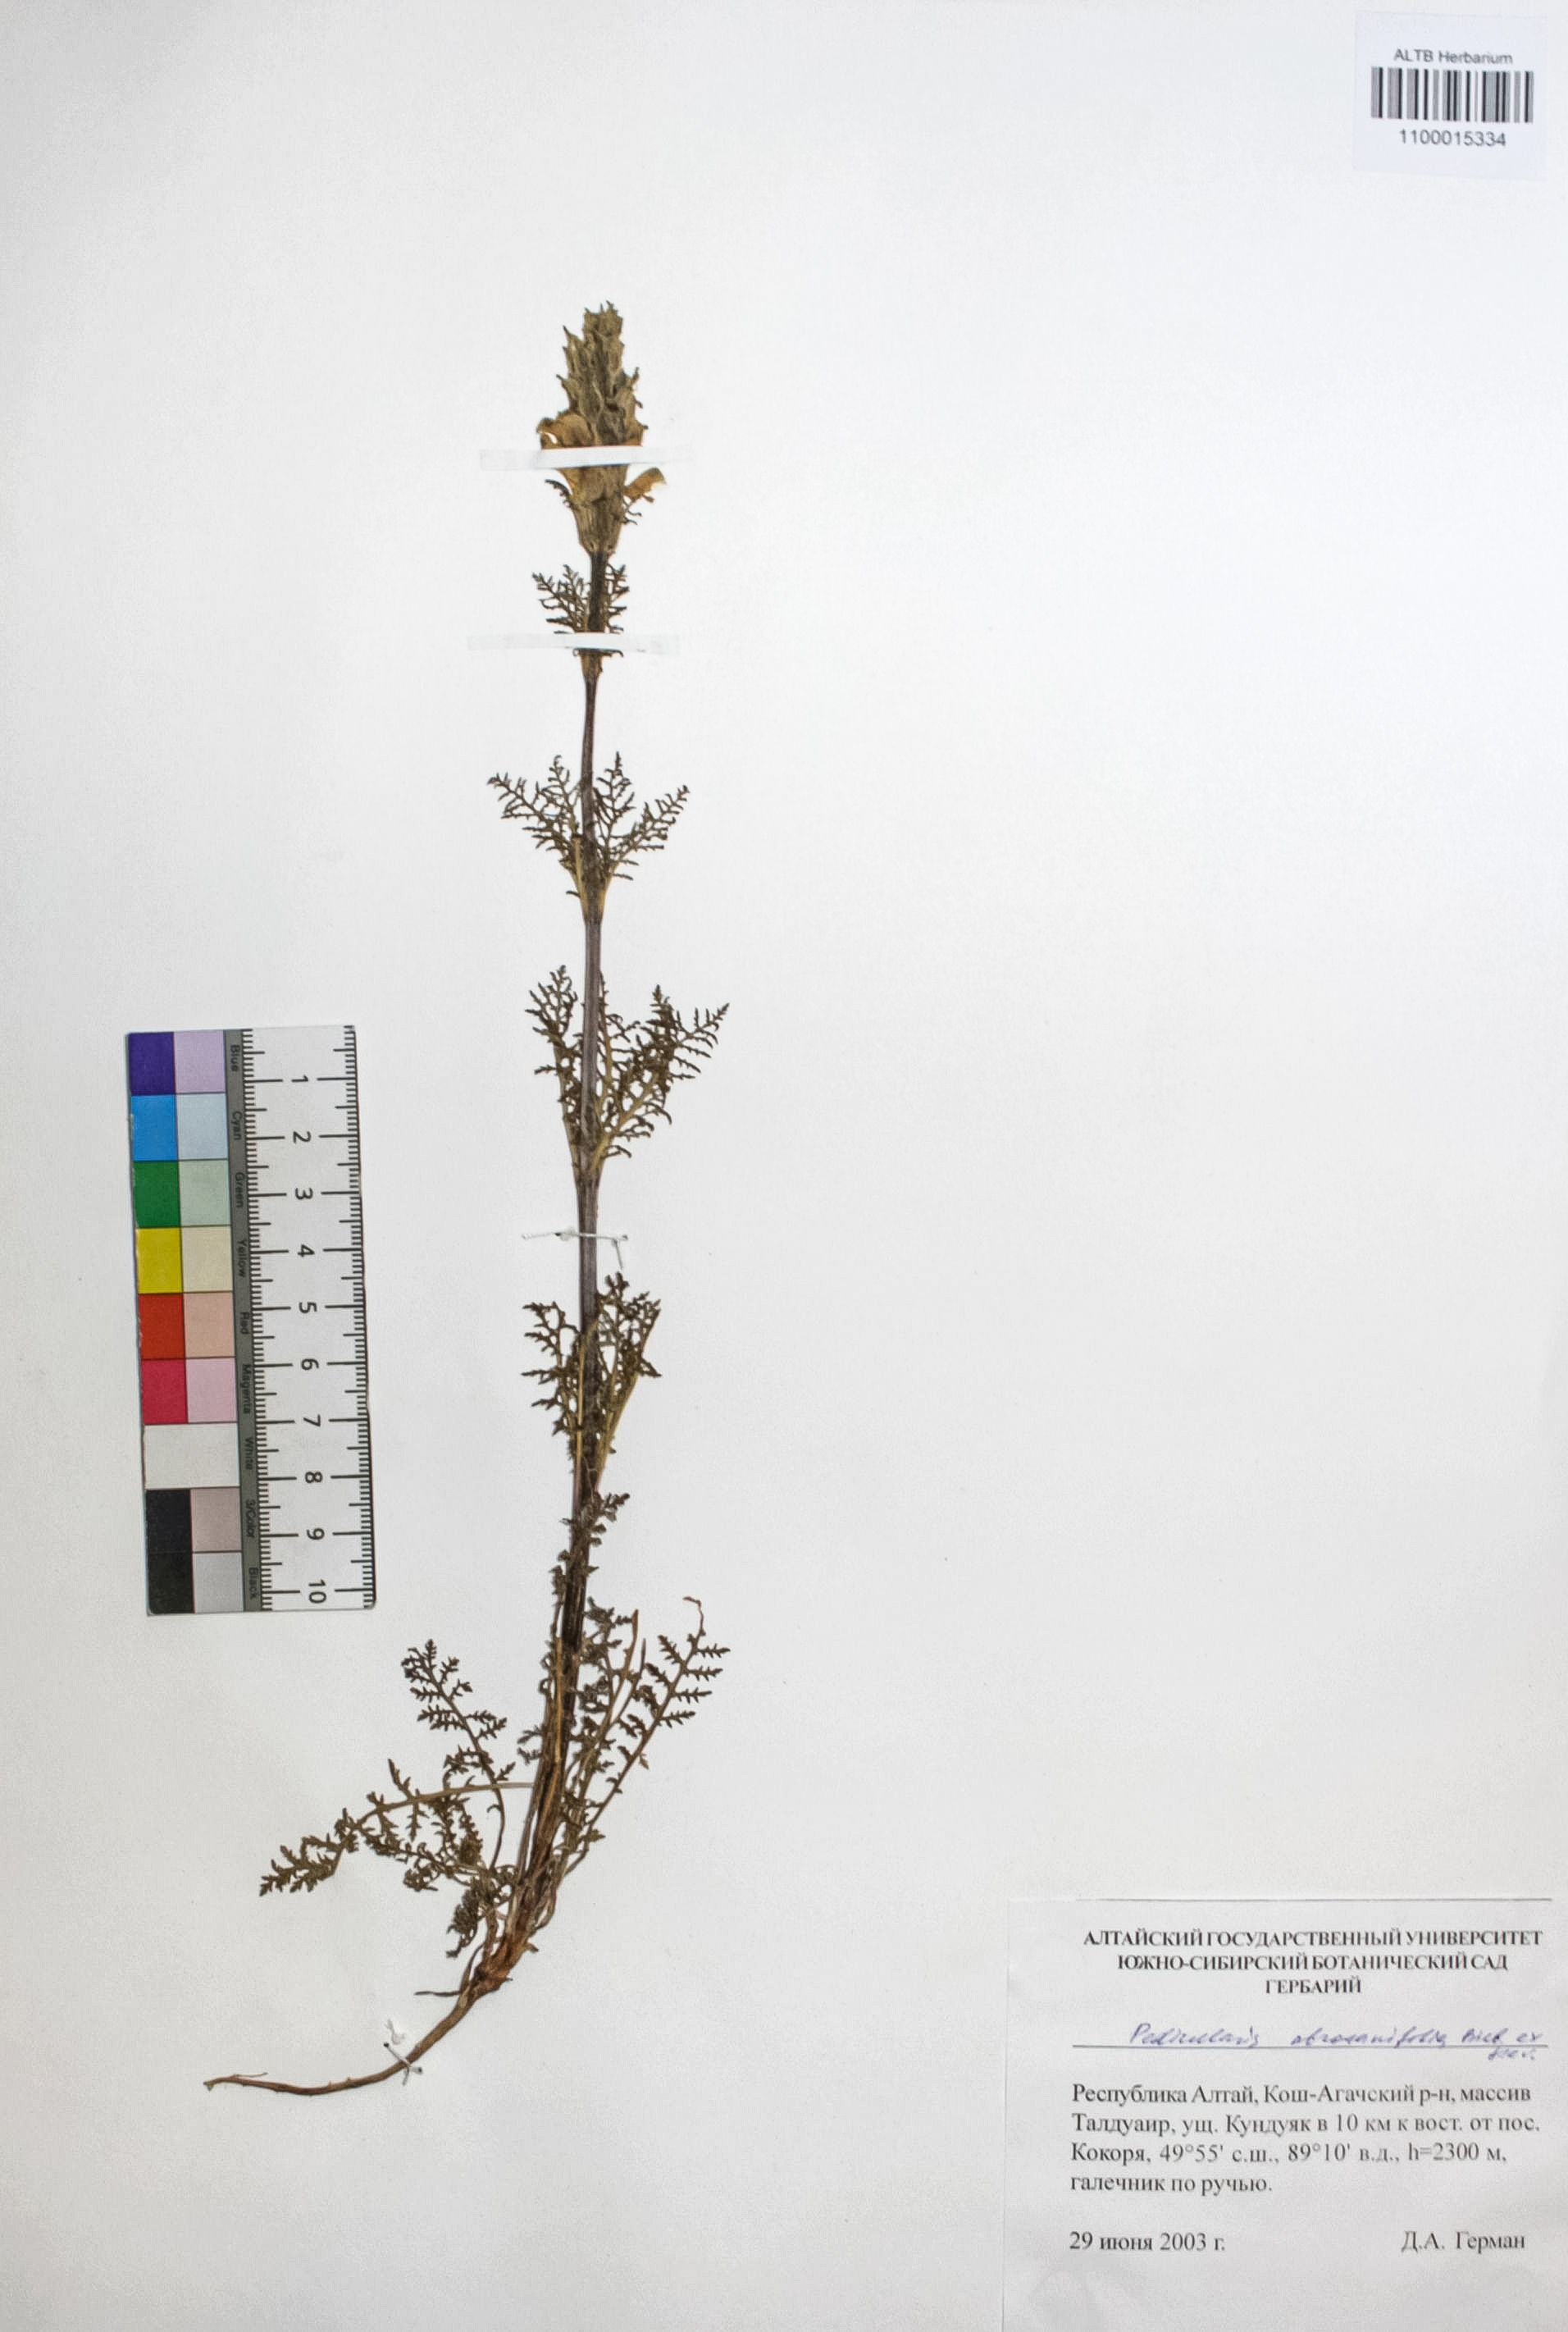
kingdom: Plantae
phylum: Tracheophyta
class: Magnoliopsida
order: Lamiales
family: Orobanchaceae
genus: Pedicularis
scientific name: Pedicularis abrotanifolia
